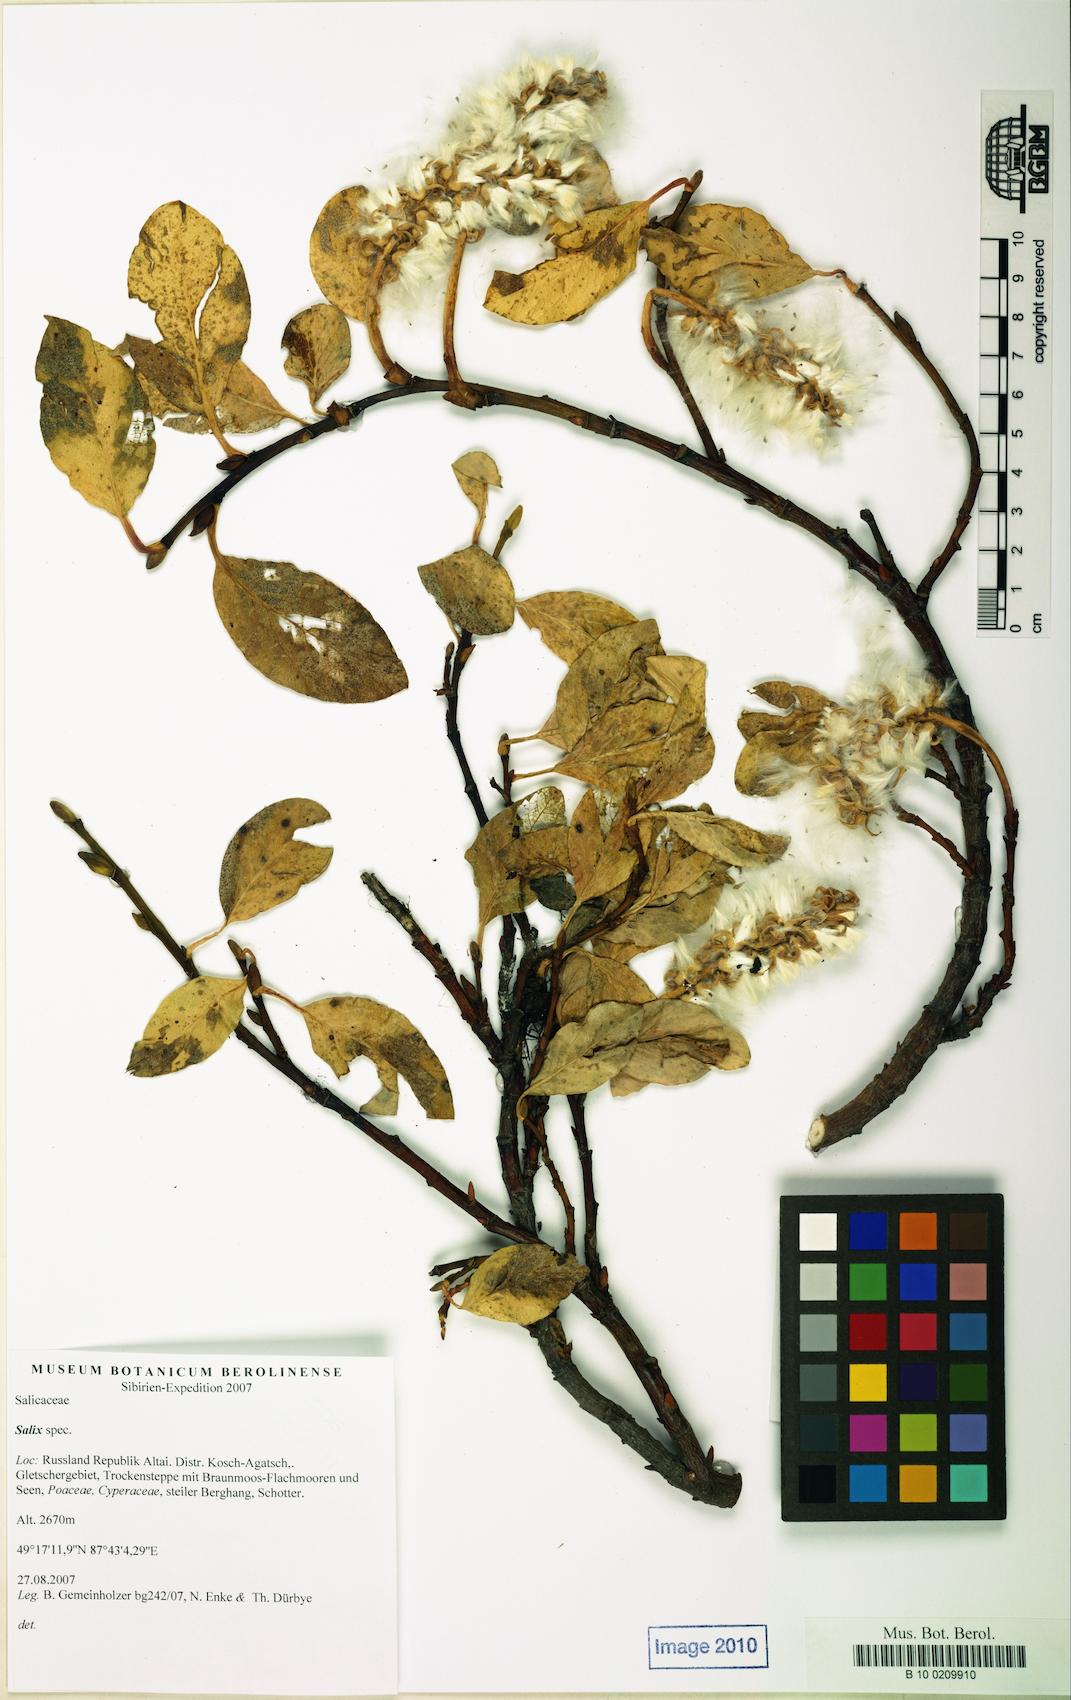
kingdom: Plantae
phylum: Tracheophyta
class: Magnoliopsida
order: Malpighiales
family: Salicaceae
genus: Salix
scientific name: Salix arctica
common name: Arctic willow
